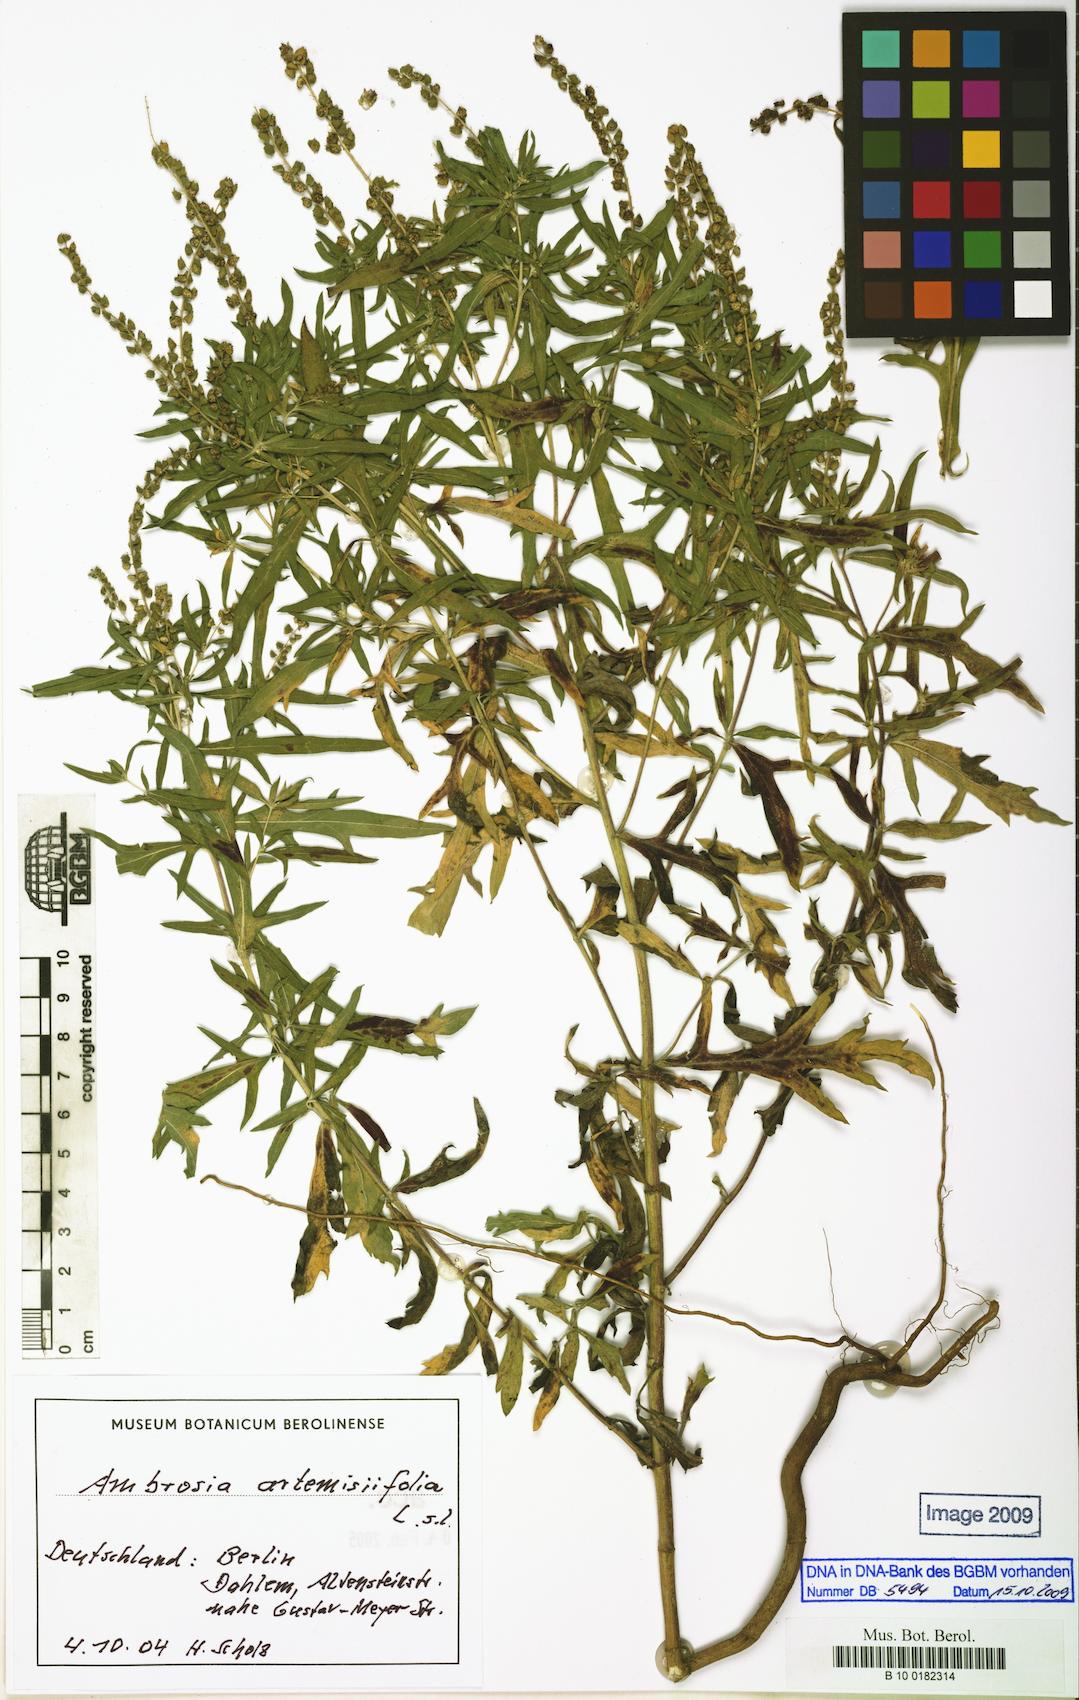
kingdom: Plantae
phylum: Tracheophyta
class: Magnoliopsida
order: Asterales
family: Asteraceae
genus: Ambrosia
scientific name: Ambrosia artemisiifolia
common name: Annual ragweed
